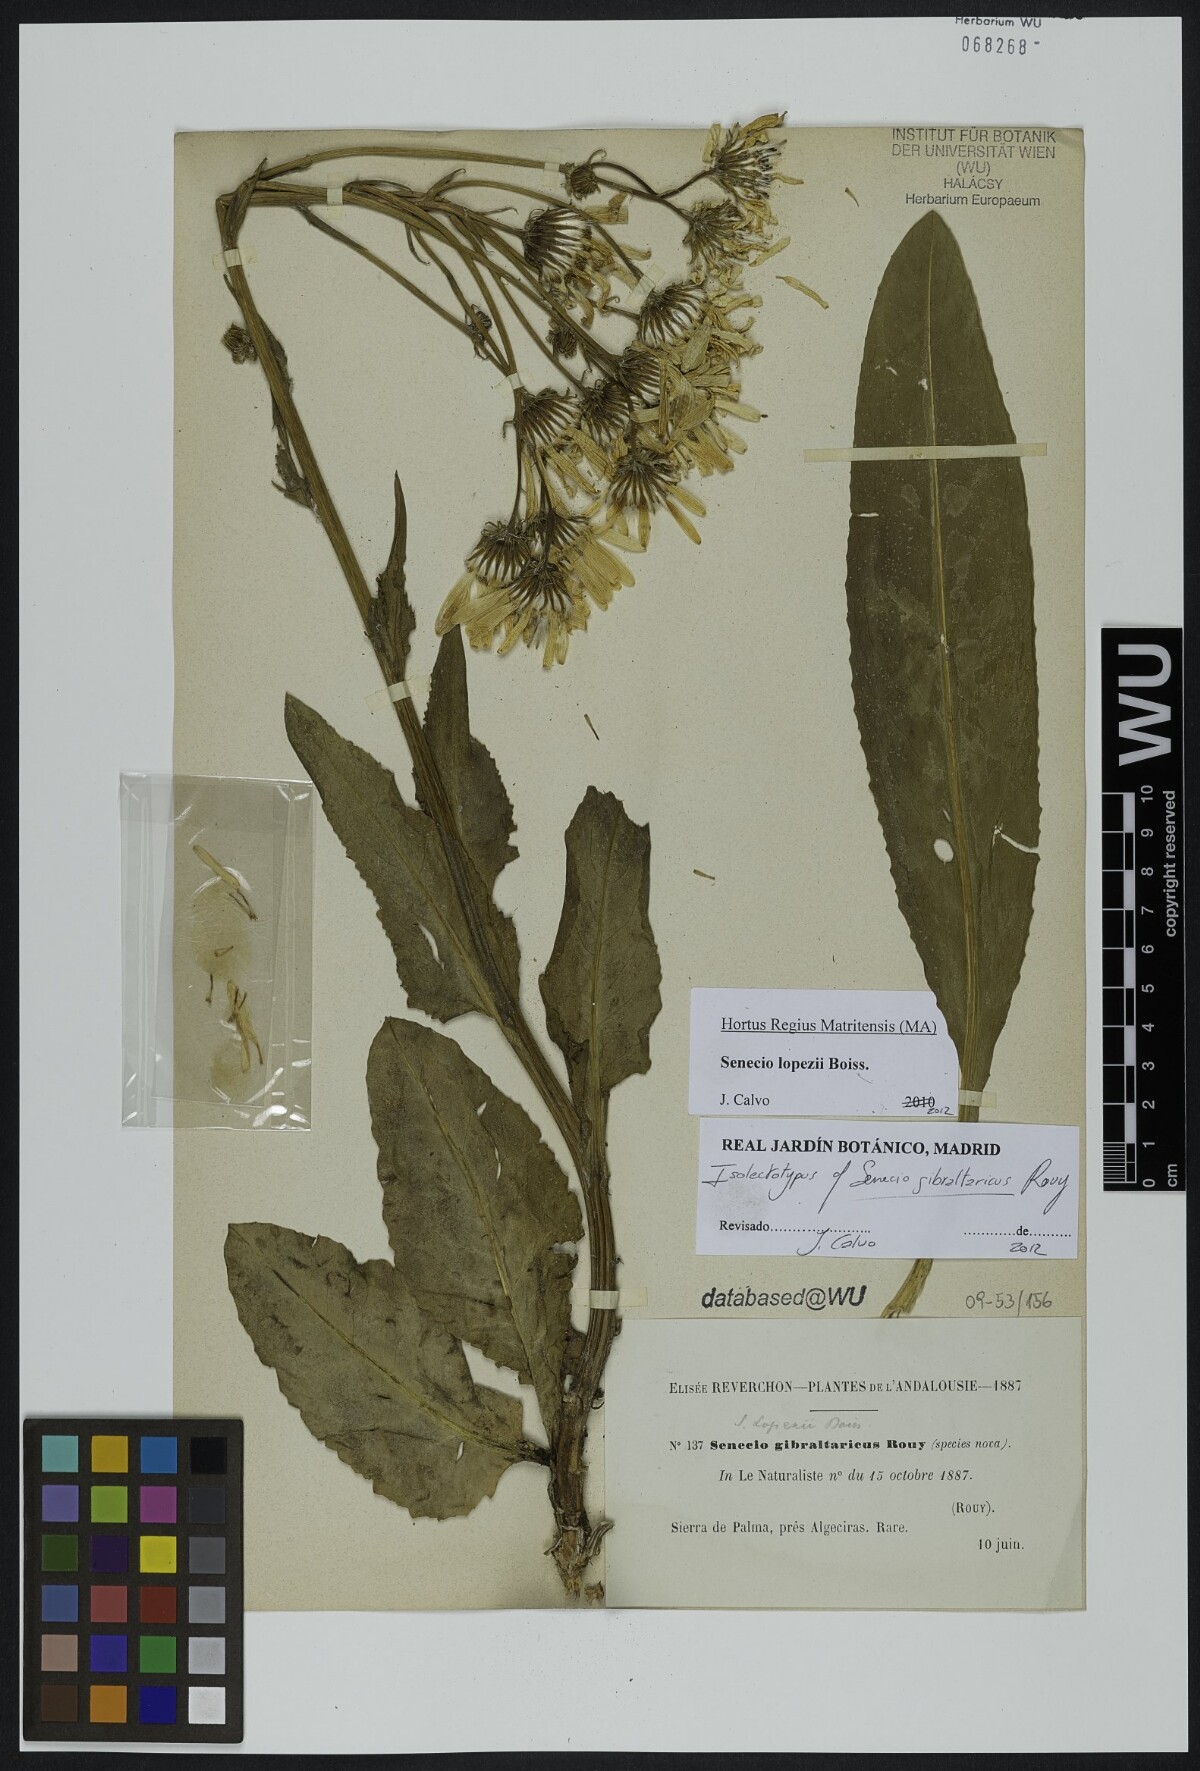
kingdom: Plantae
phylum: Tracheophyta
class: Magnoliopsida
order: Asterales
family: Asteraceae
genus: Senecio
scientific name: Senecio lopezii
